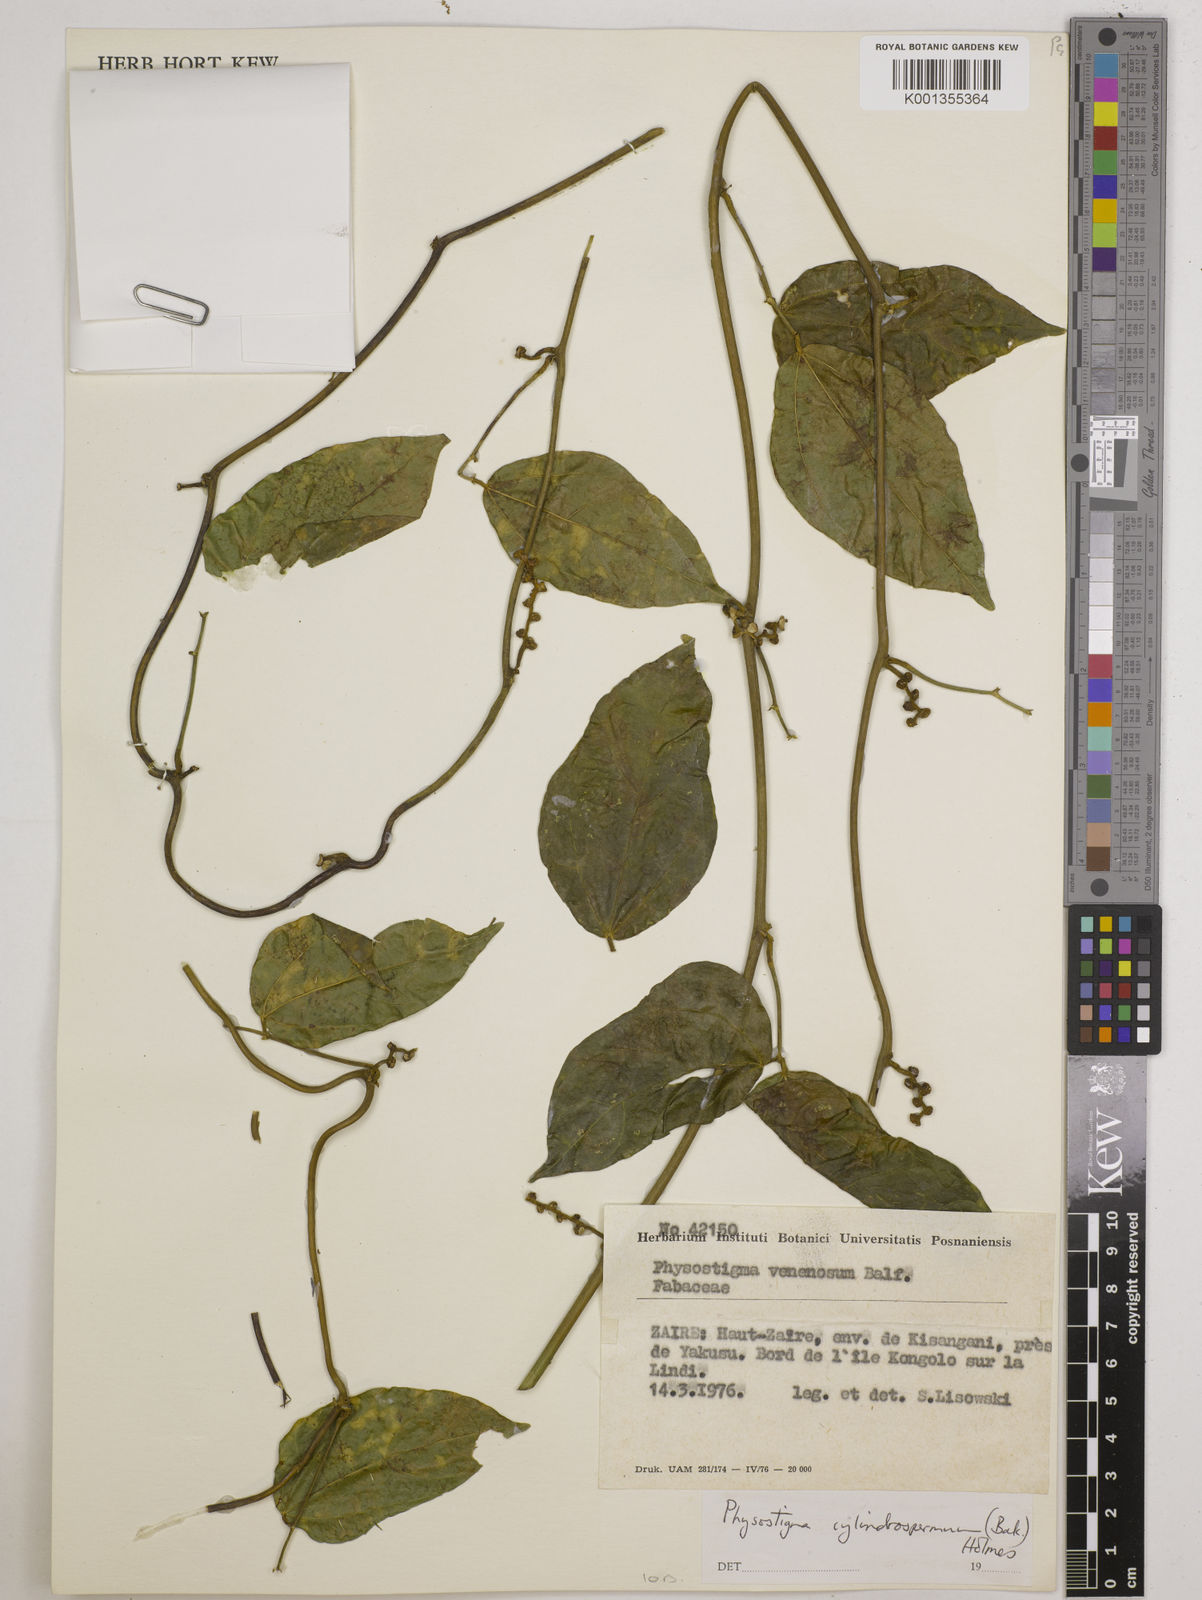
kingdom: Plantae
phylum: Tracheophyta
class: Magnoliopsida
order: Fabales
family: Fabaceae
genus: Physostigma
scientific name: Physostigma cylindrospermum
